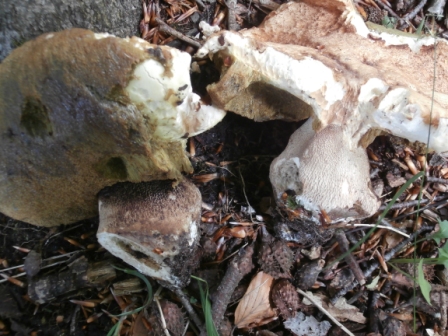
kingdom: Fungi
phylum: Basidiomycota
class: Agaricomycetes
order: Boletales
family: Boletaceae
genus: Boletus
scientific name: Boletus reticulatus
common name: sommer-rørhat
